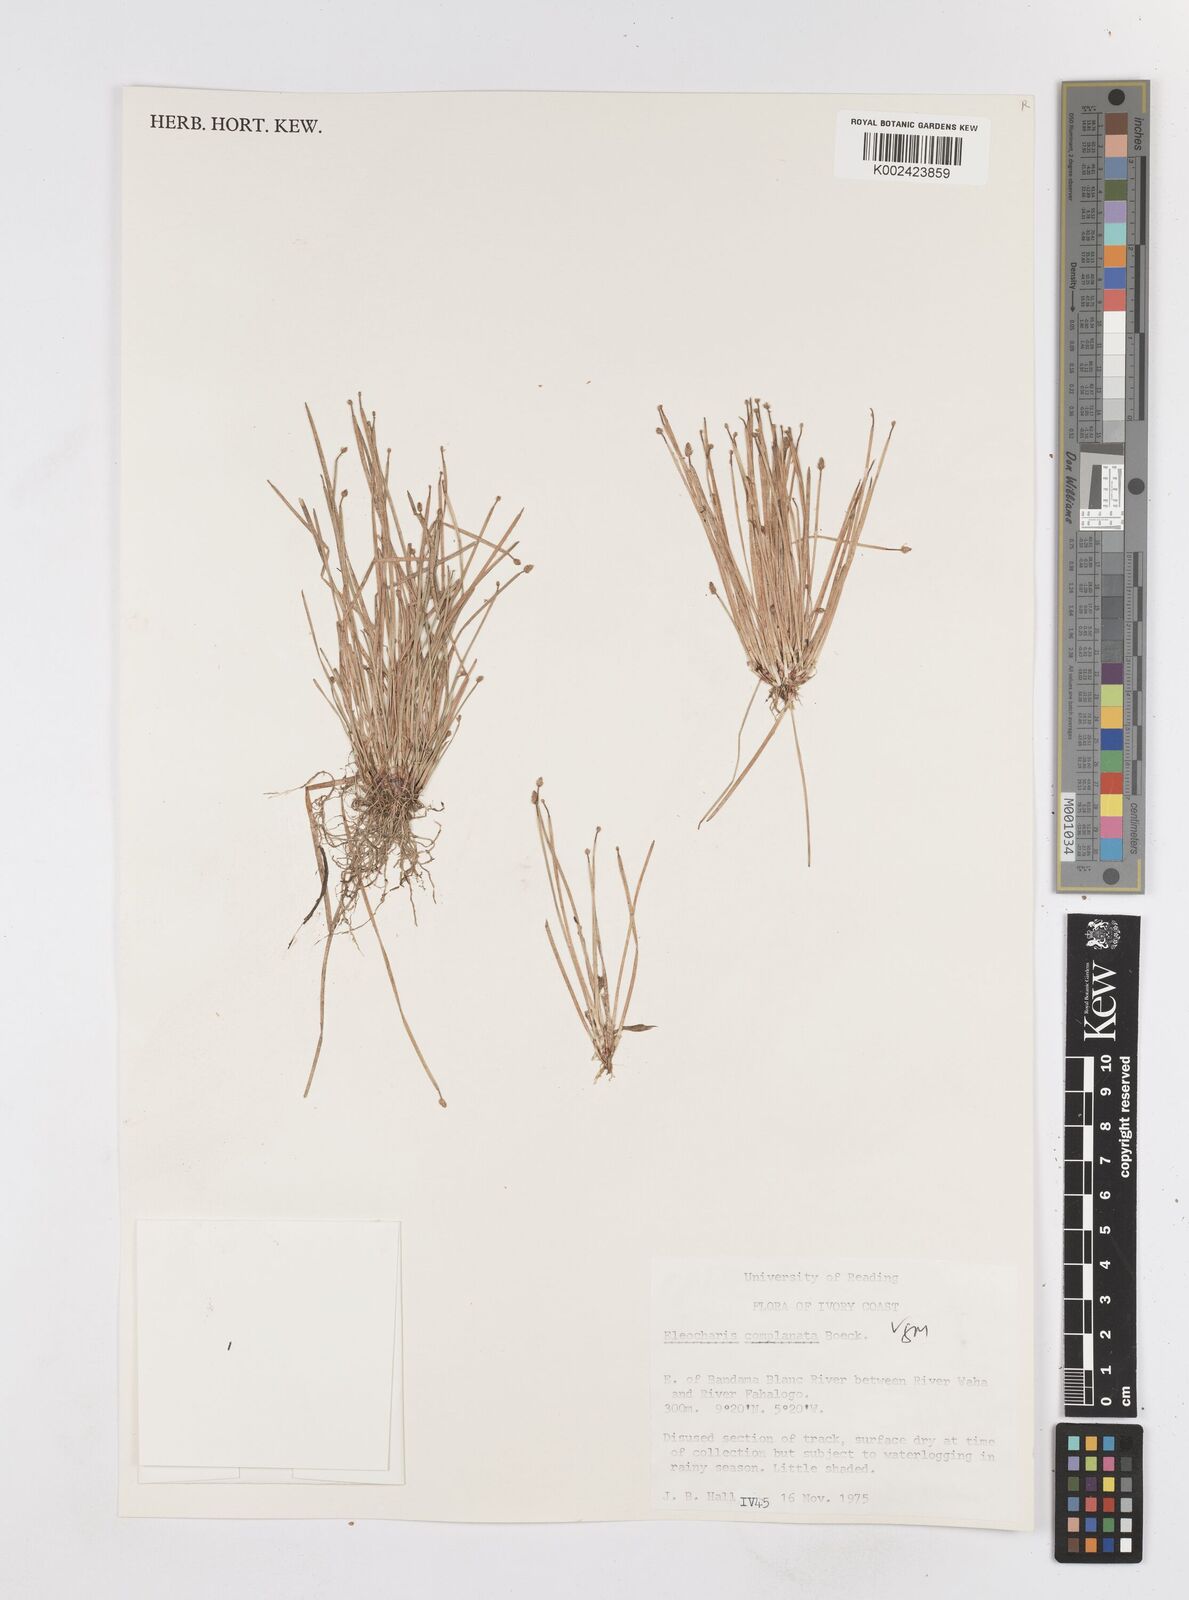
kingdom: Plantae
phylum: Tracheophyta
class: Liliopsida
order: Poales
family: Cyperaceae
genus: Eleocharis
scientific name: Eleocharis complanata
